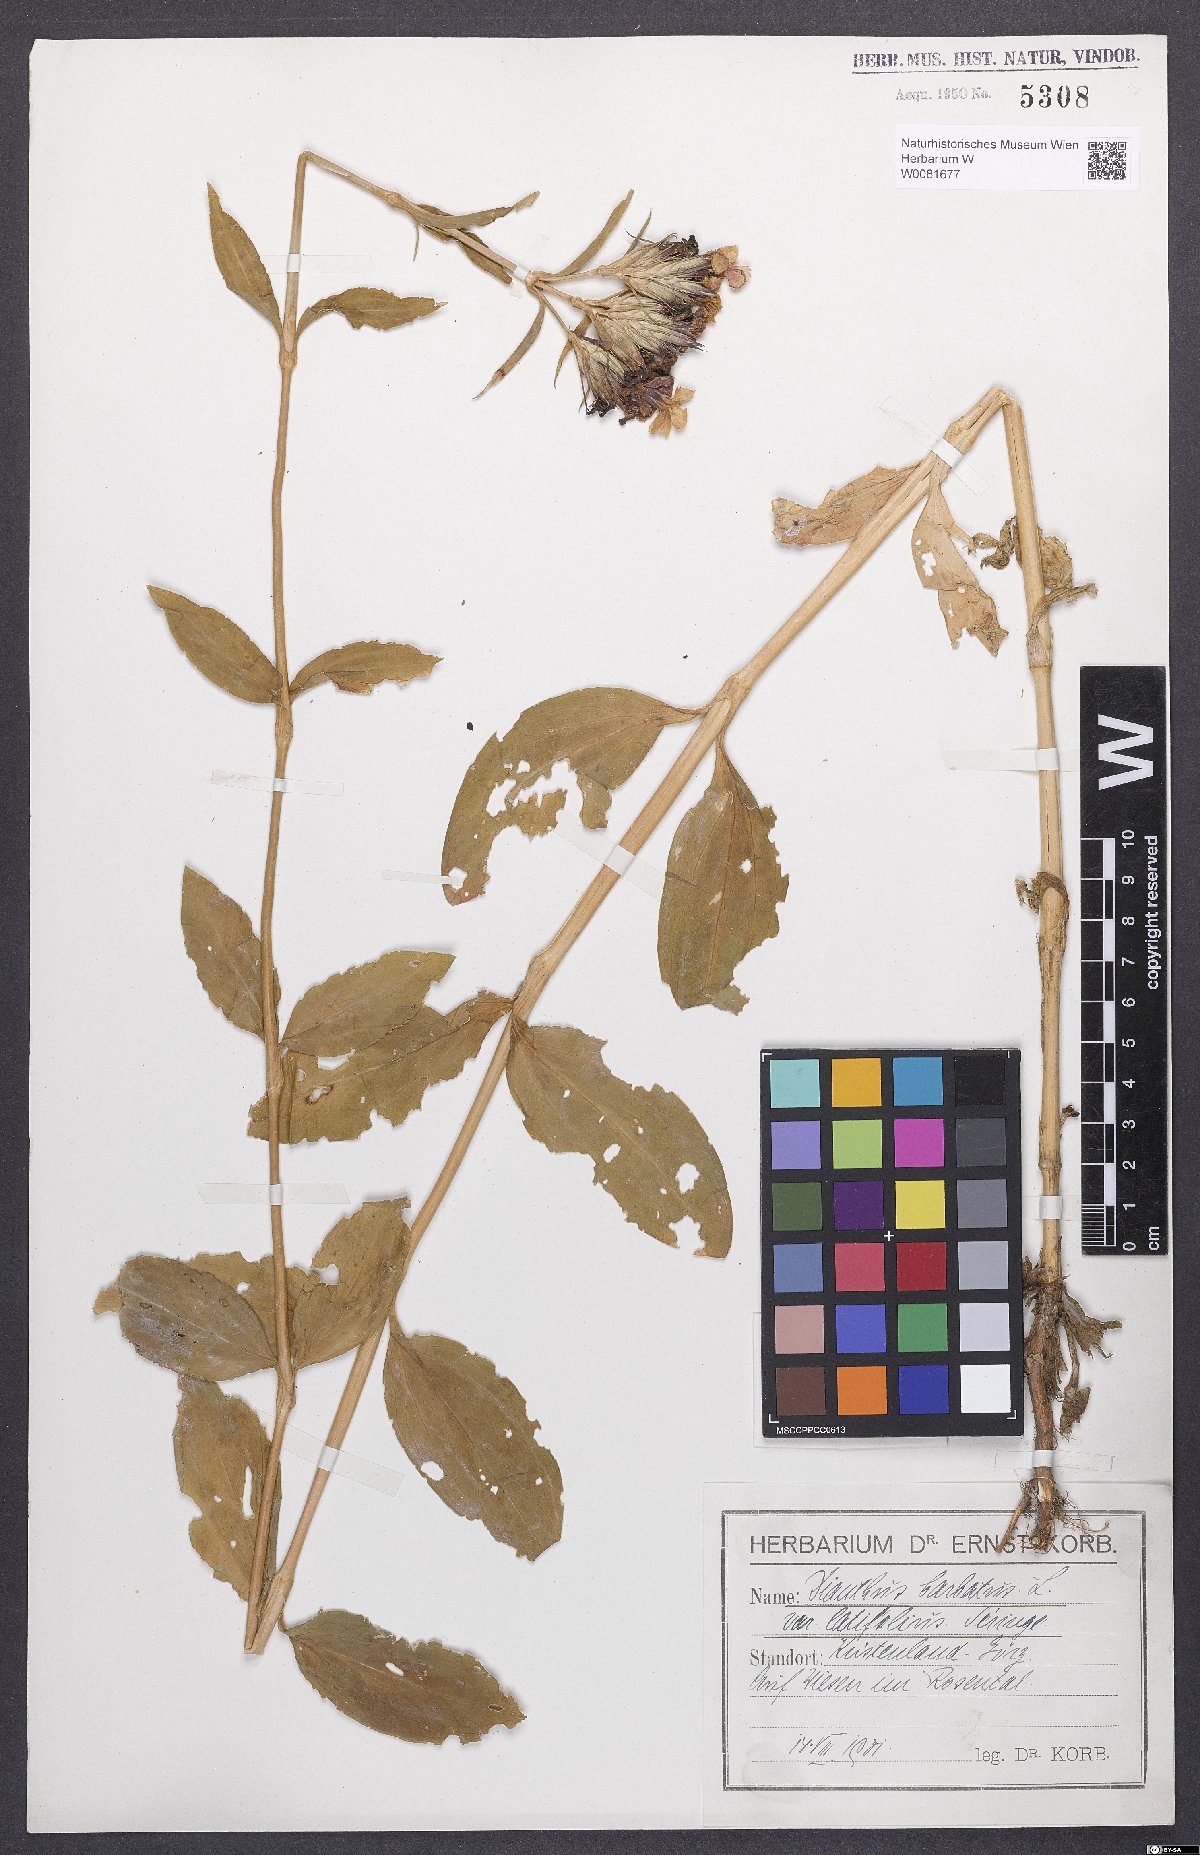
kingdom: Plantae
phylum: Tracheophyta
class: Magnoliopsida
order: Caryophyllales
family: Caryophyllaceae
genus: Dianthus
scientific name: Dianthus barbatus
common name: Sweet-william
